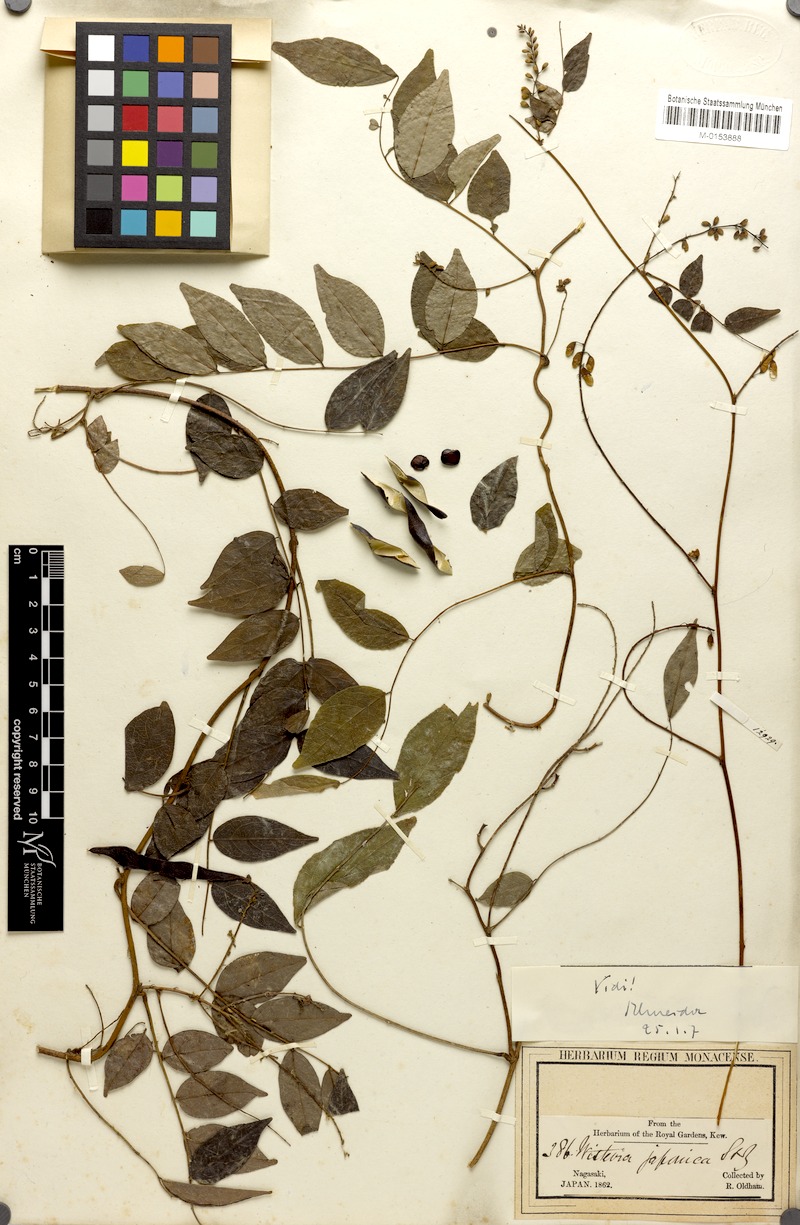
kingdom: Plantae
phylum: Tracheophyta
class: Magnoliopsida
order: Fabales
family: Fabaceae
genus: Wisteriopsis
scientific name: Wisteriopsis japonica
